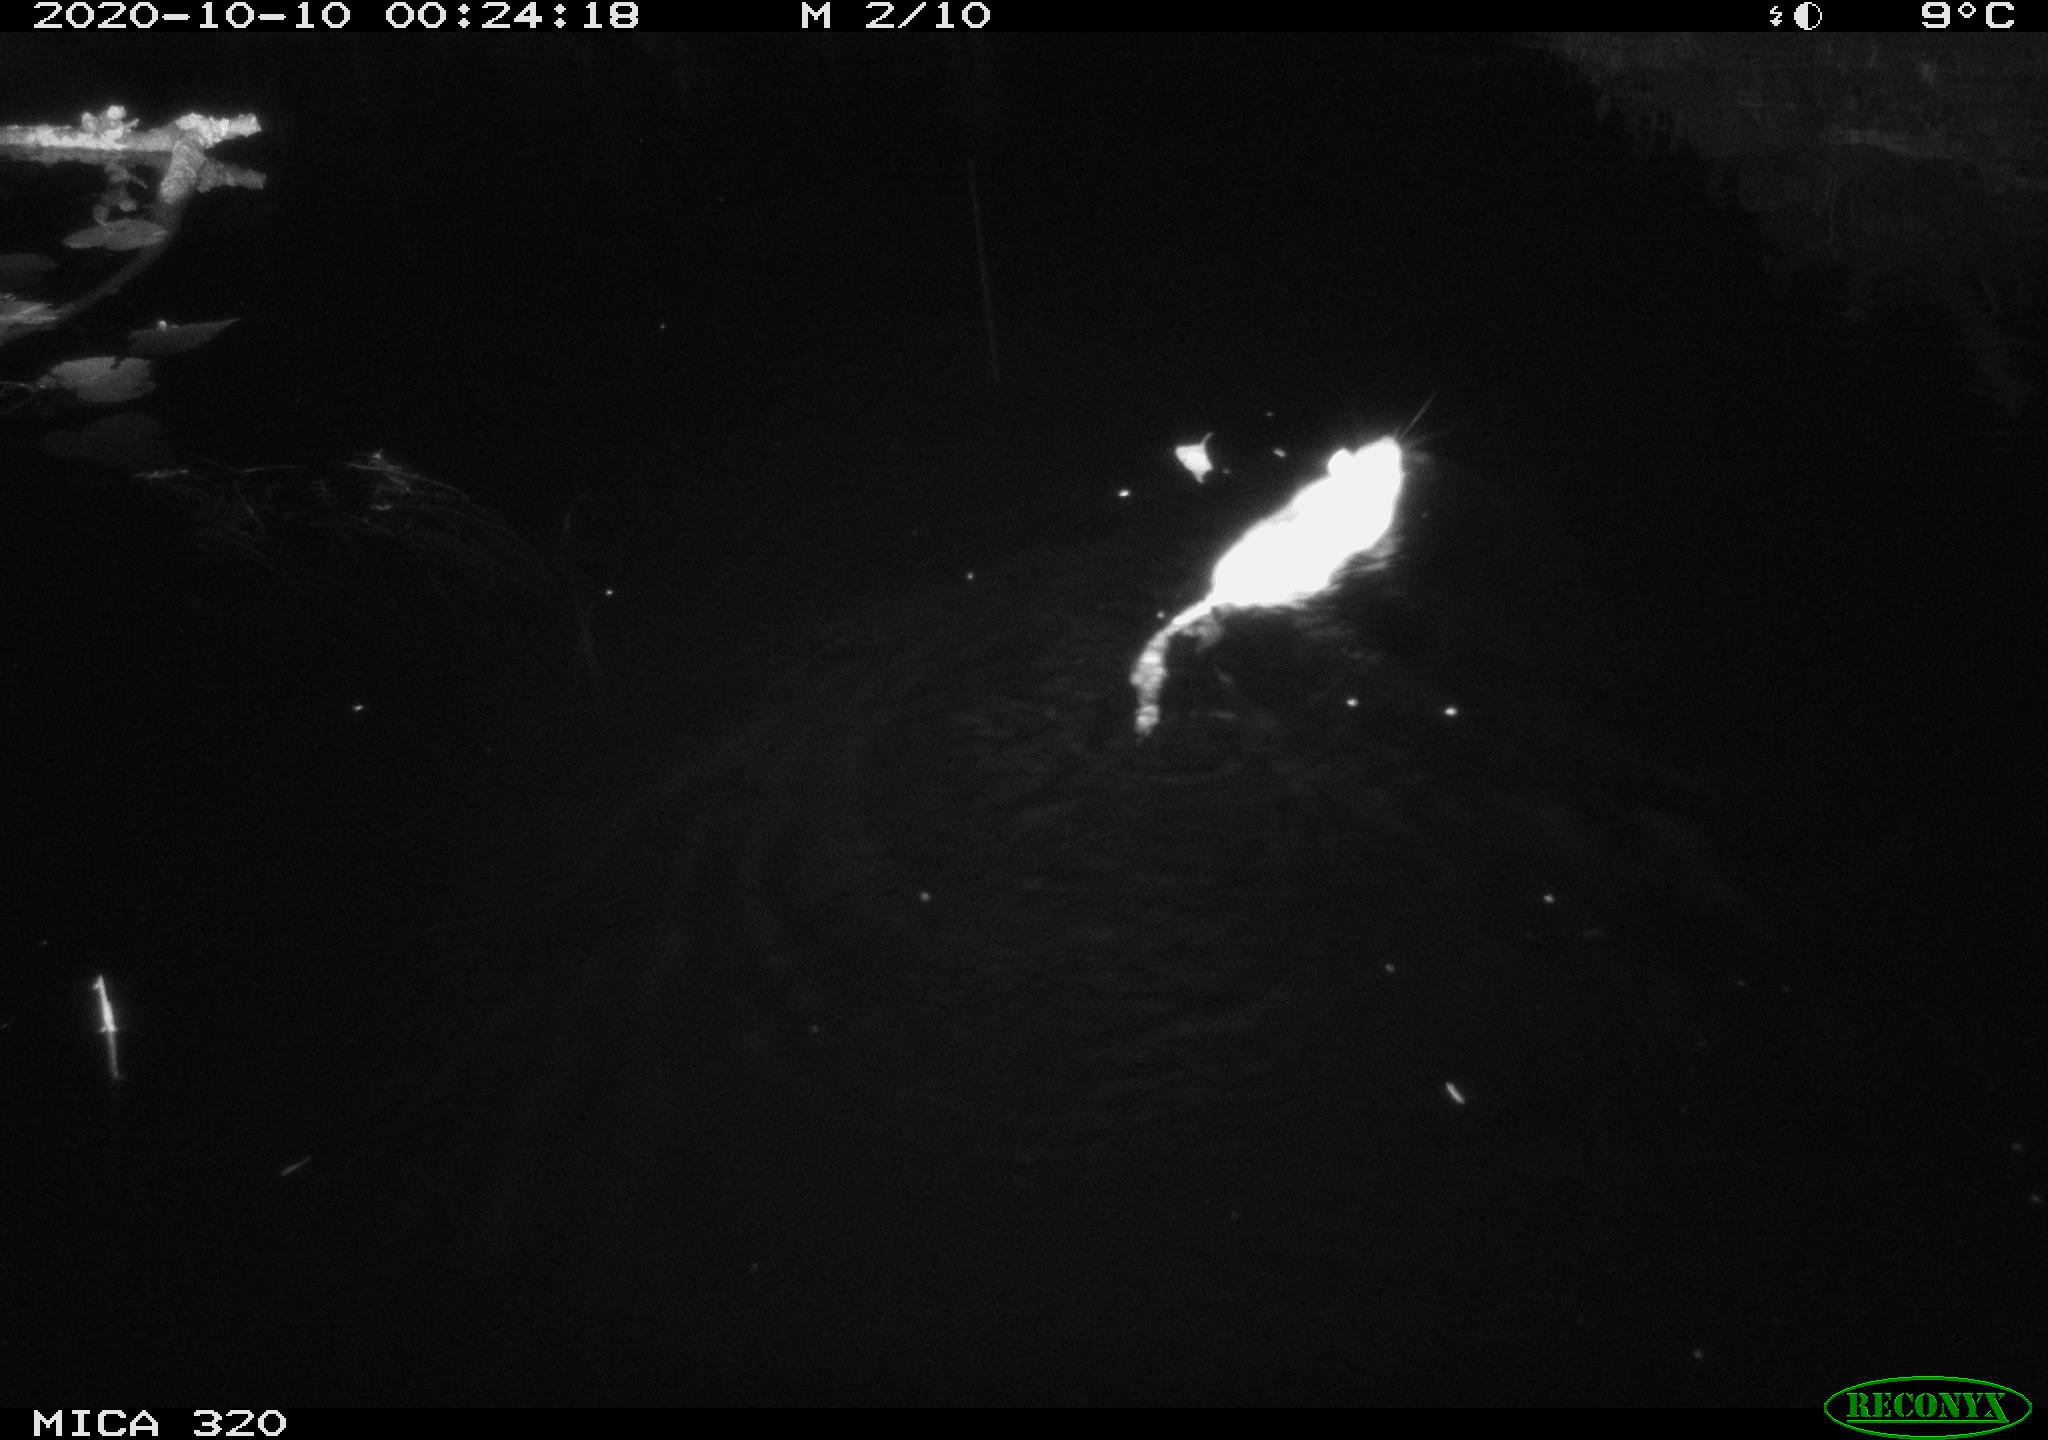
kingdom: Animalia
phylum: Chordata
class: Mammalia
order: Rodentia
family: Muridae
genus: Rattus
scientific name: Rattus norvegicus
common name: Brown rat
